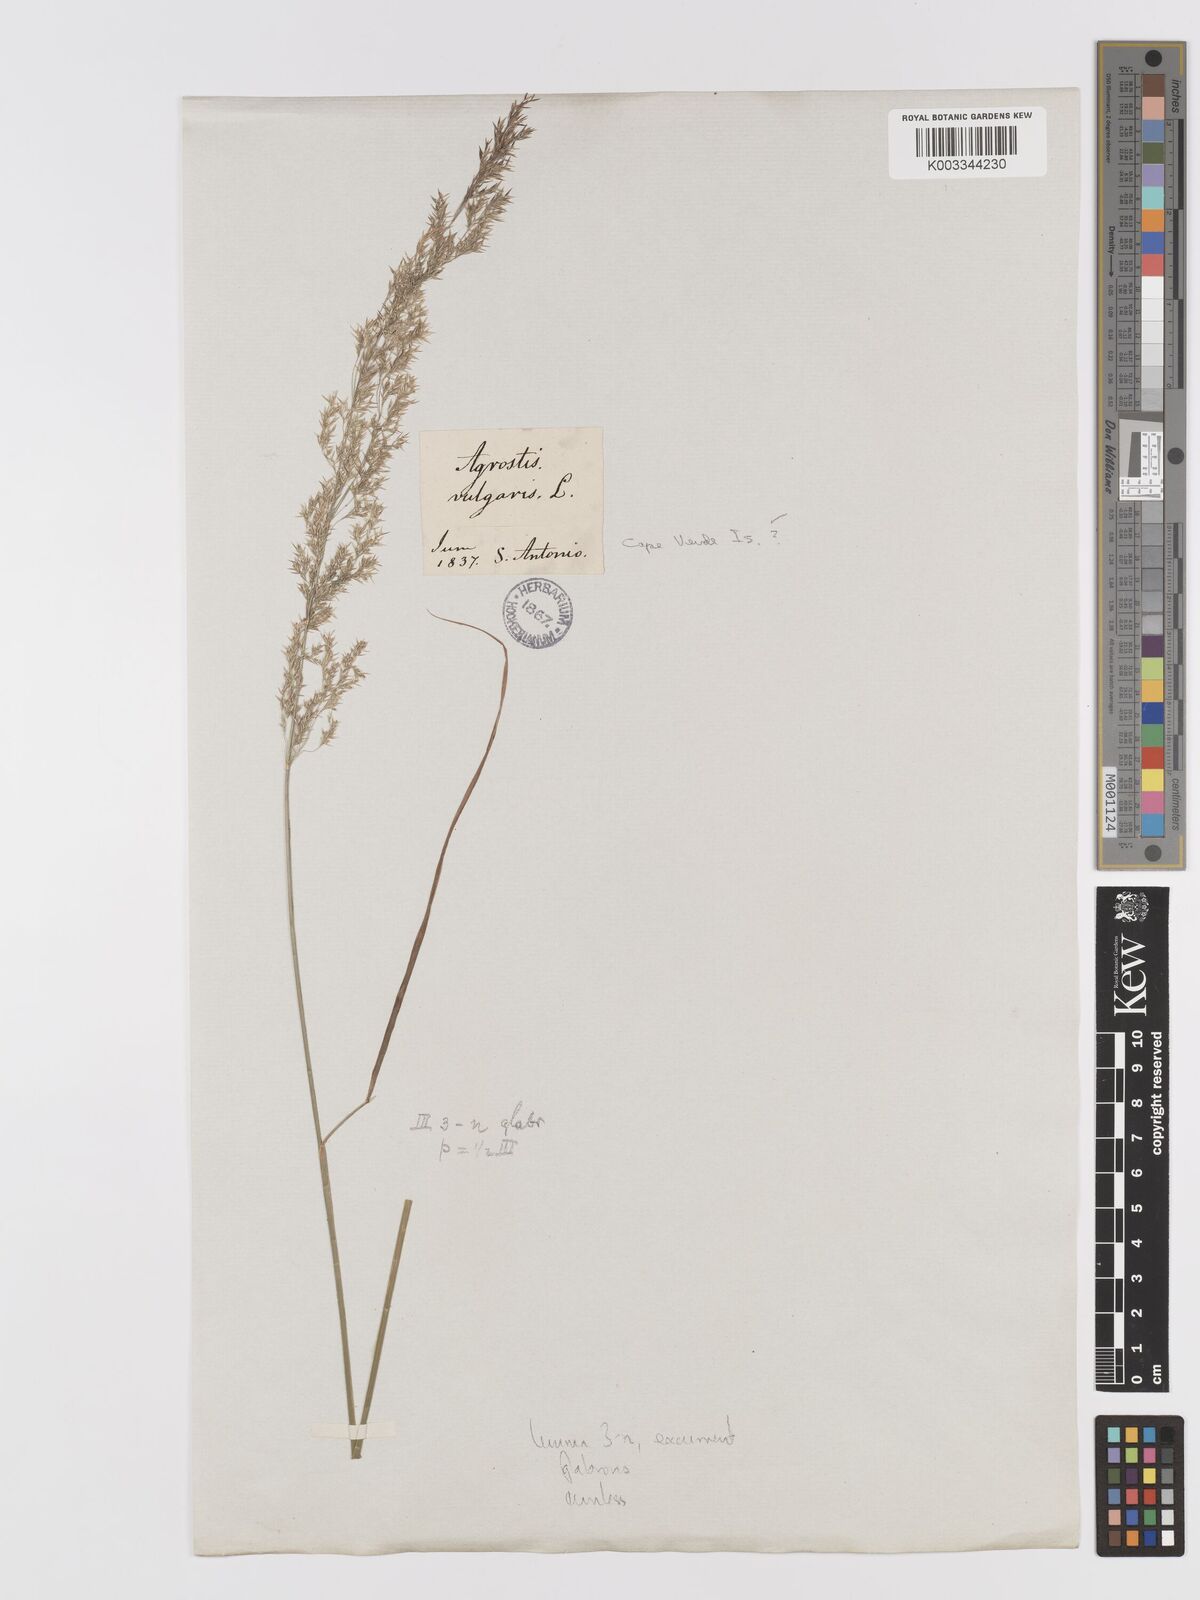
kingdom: Plantae
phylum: Tracheophyta
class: Liliopsida
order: Poales
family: Poaceae
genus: Agrostis
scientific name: Agrostis castellana
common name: Highland bent
